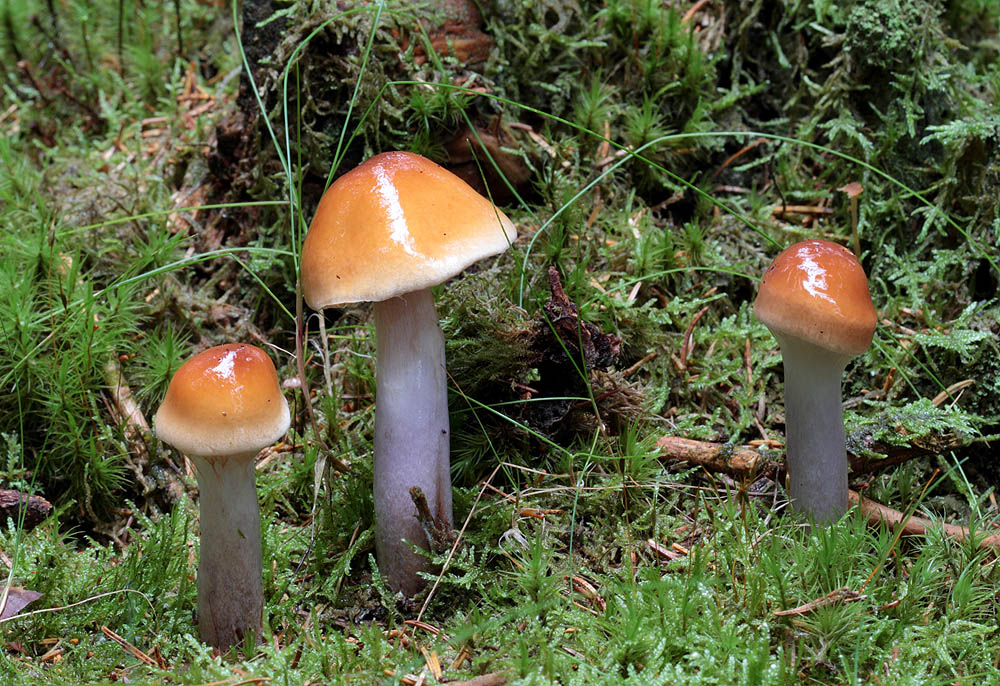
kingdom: Fungi
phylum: Basidiomycota
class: Agaricomycetes
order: Agaricales
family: Cortinariaceae
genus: Cortinarius
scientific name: Cortinarius collinitus
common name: spættet slørhat
